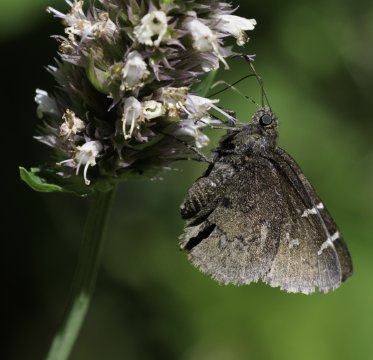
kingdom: Animalia
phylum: Arthropoda
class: Insecta
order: Lepidoptera
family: Hesperiidae
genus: Autochton
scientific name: Autochton
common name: Northern Cloudywing
